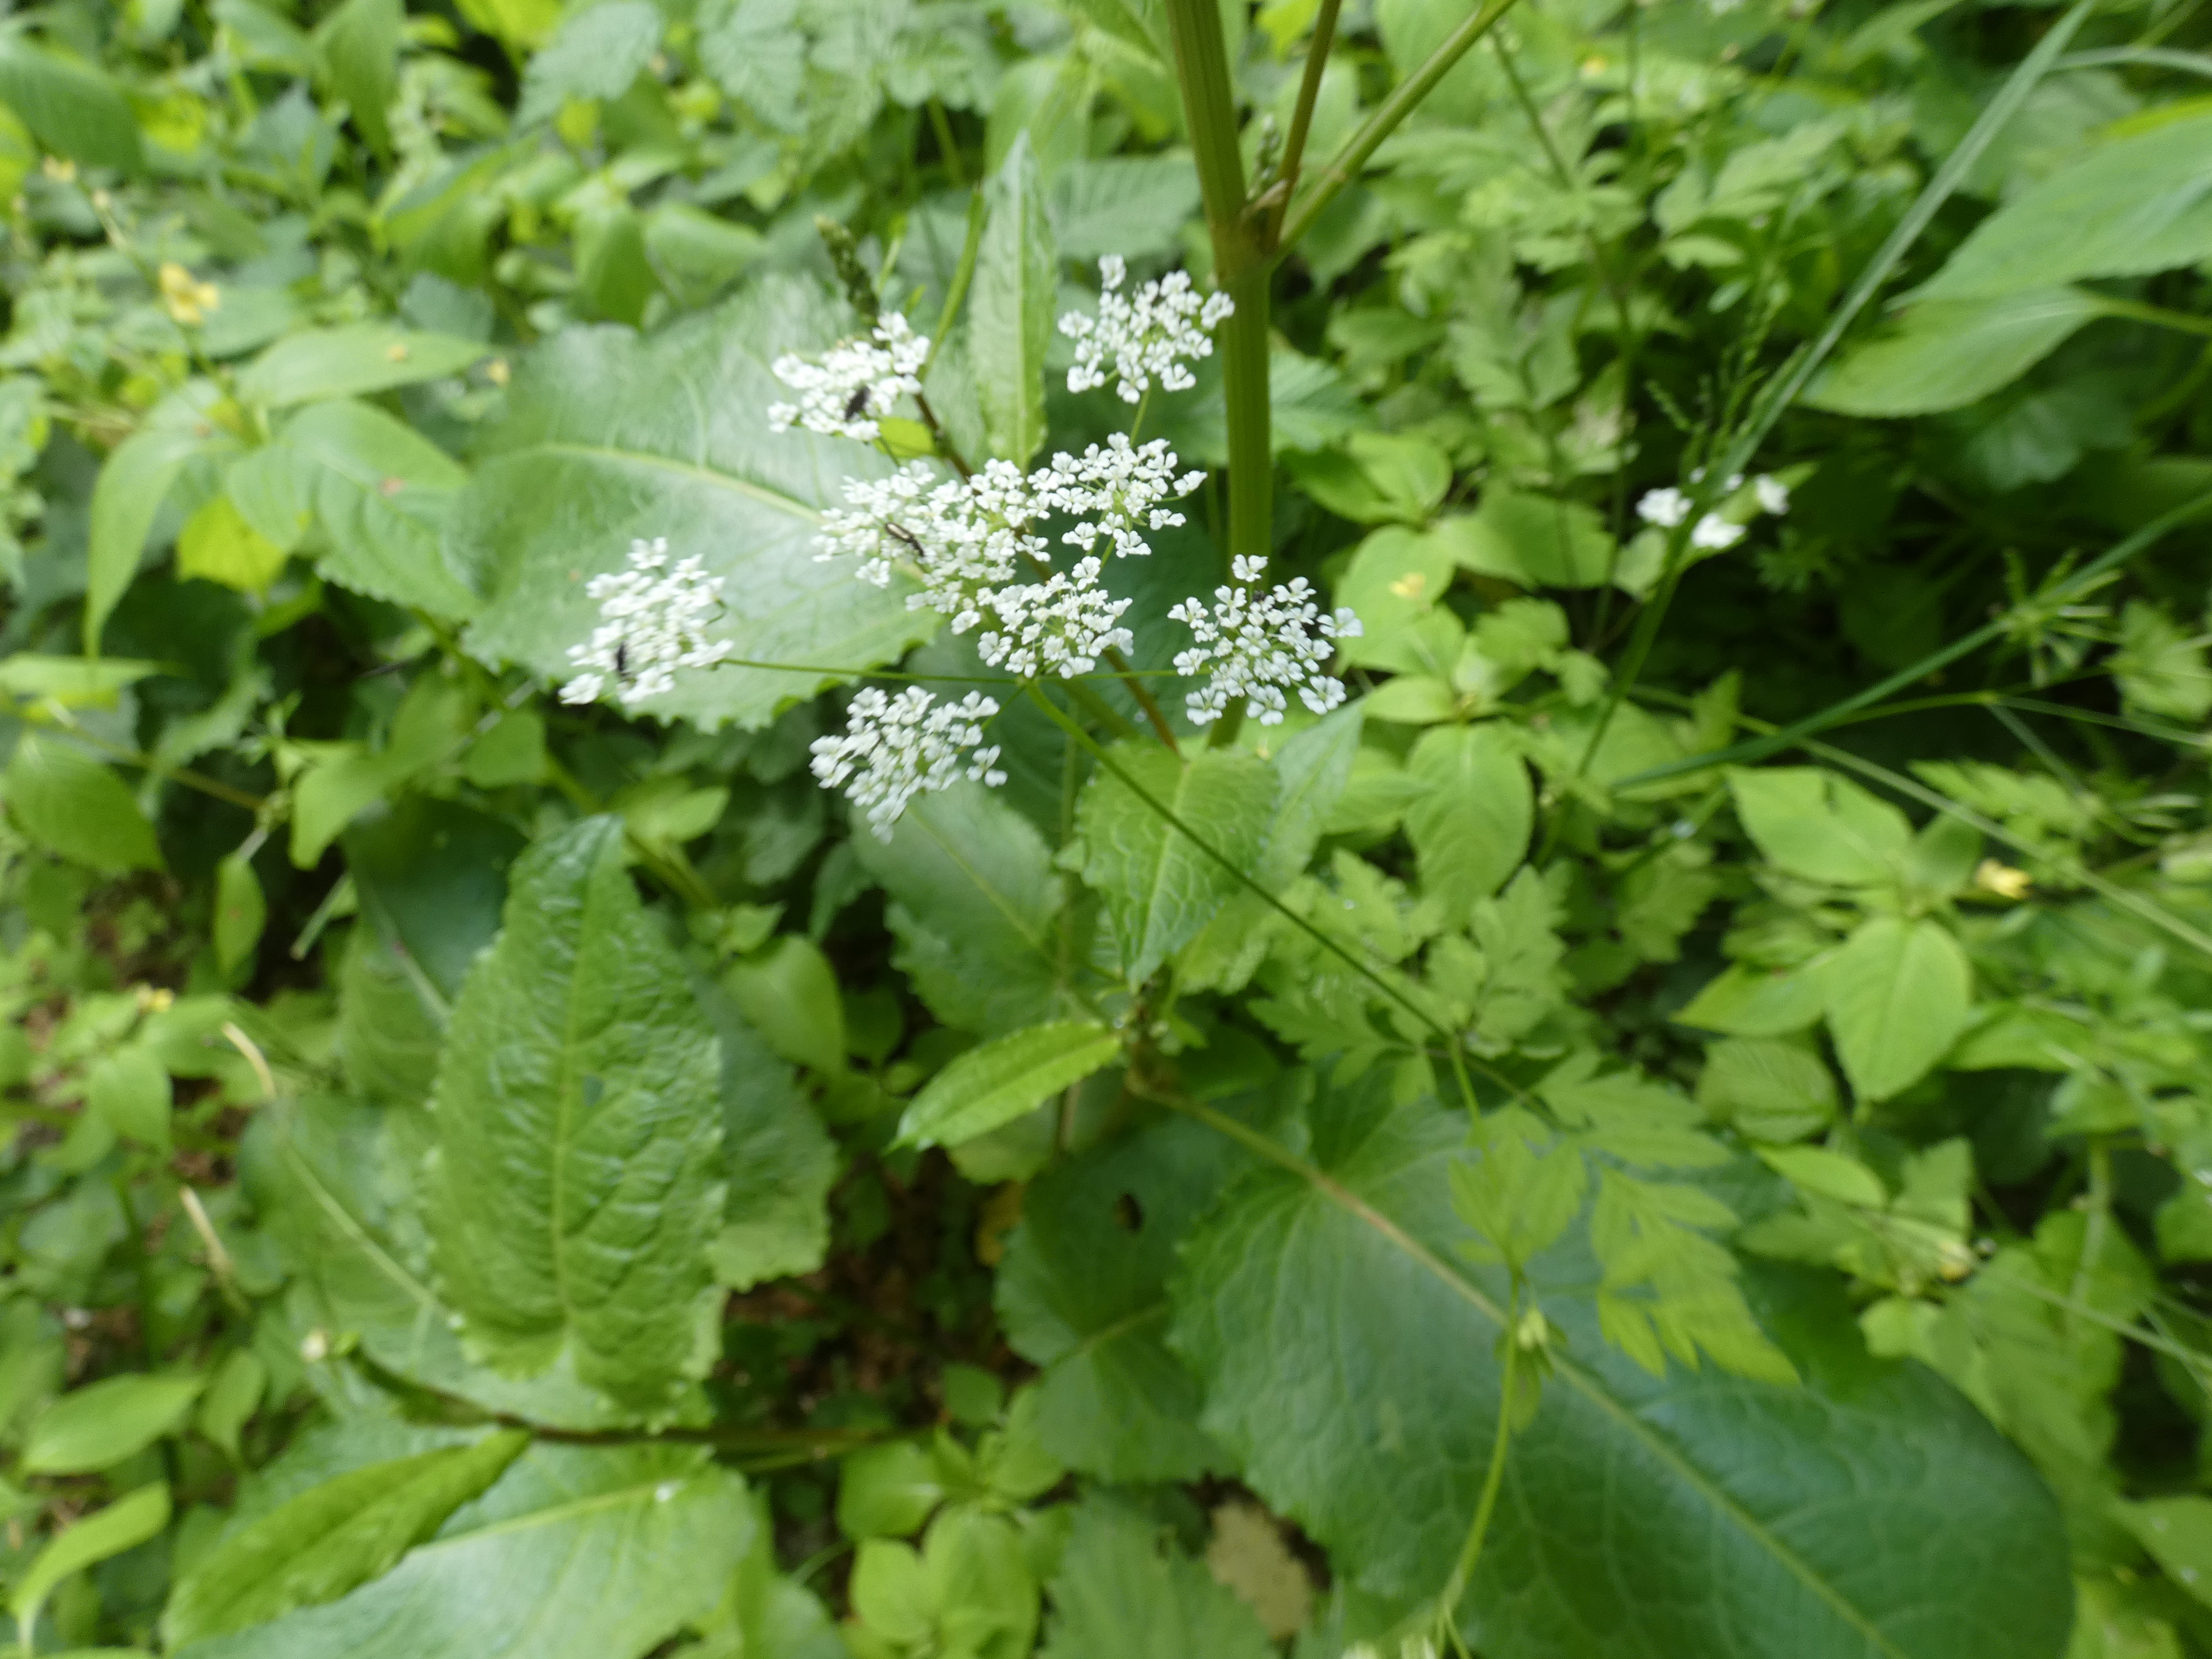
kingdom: Plantae
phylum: Tracheophyta
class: Magnoliopsida
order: Apiales
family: Apiaceae
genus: Chaerophyllum
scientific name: Chaerophyllum temulum
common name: Almindelig hulsvøb
